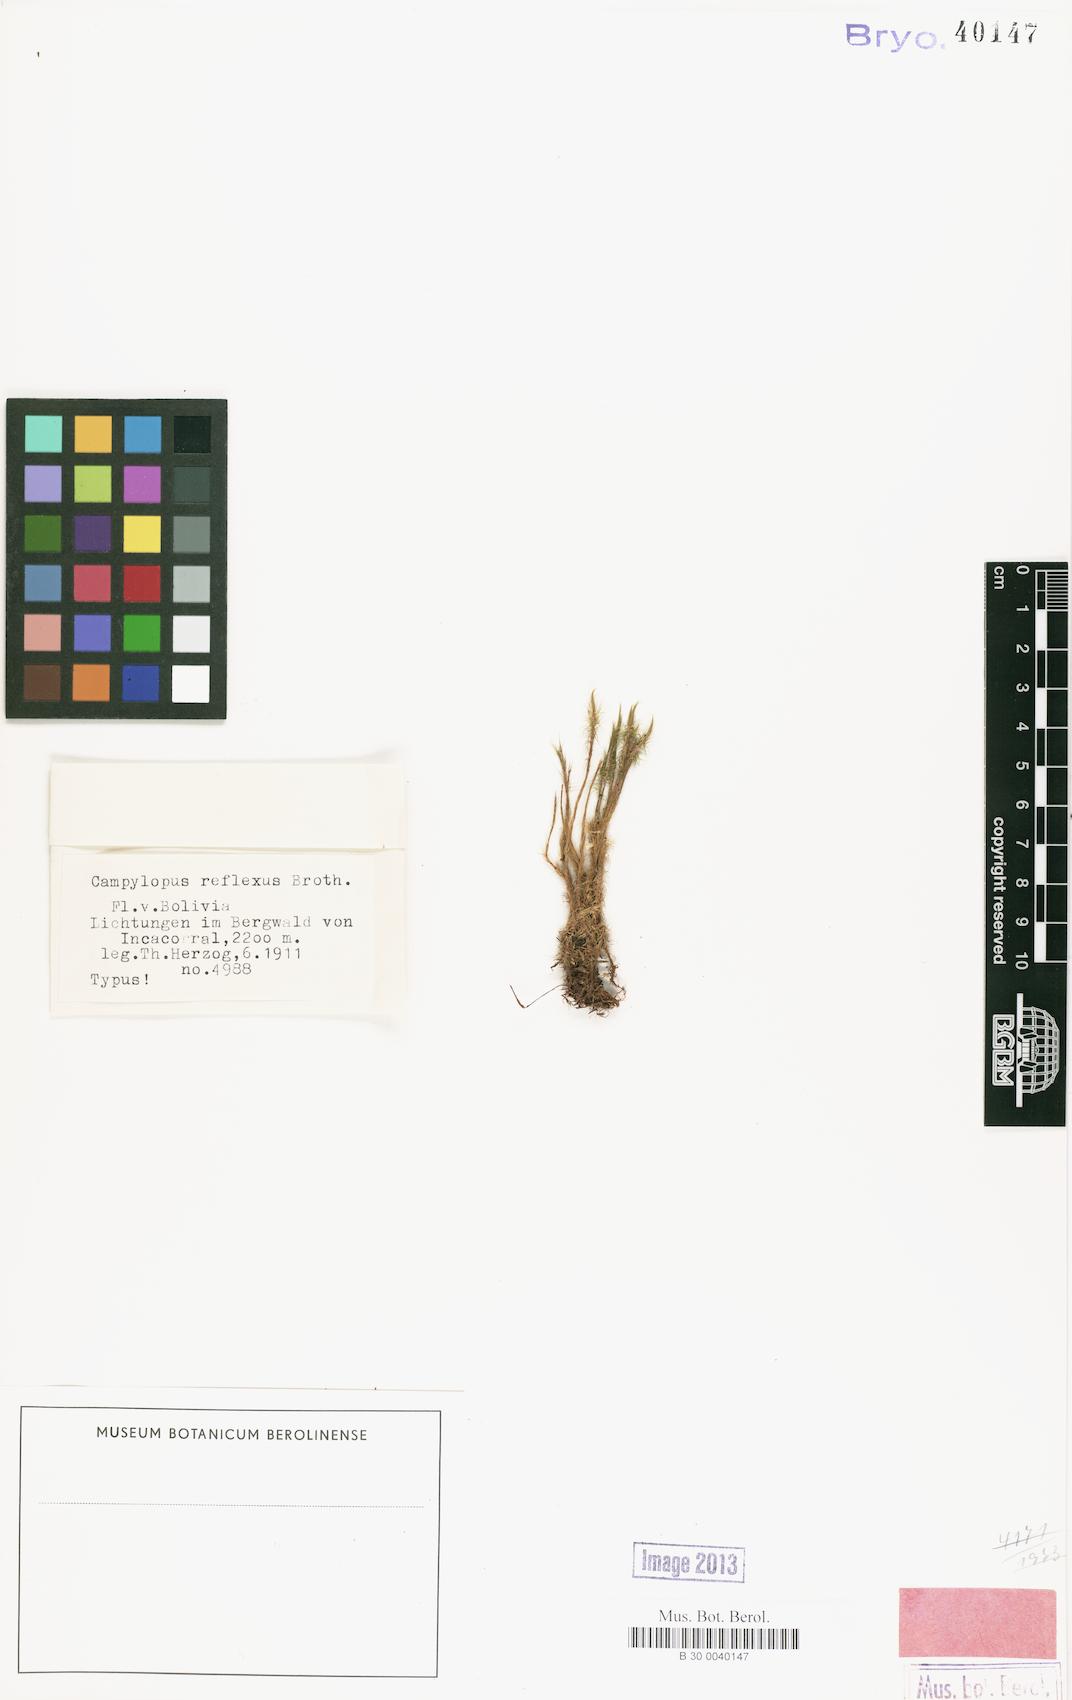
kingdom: Plantae
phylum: Bryophyta
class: Bryopsida
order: Dicranales
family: Leucobryaceae
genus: Campylopus
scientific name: Campylopus flexuosus
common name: Rusty swan-neck moss
